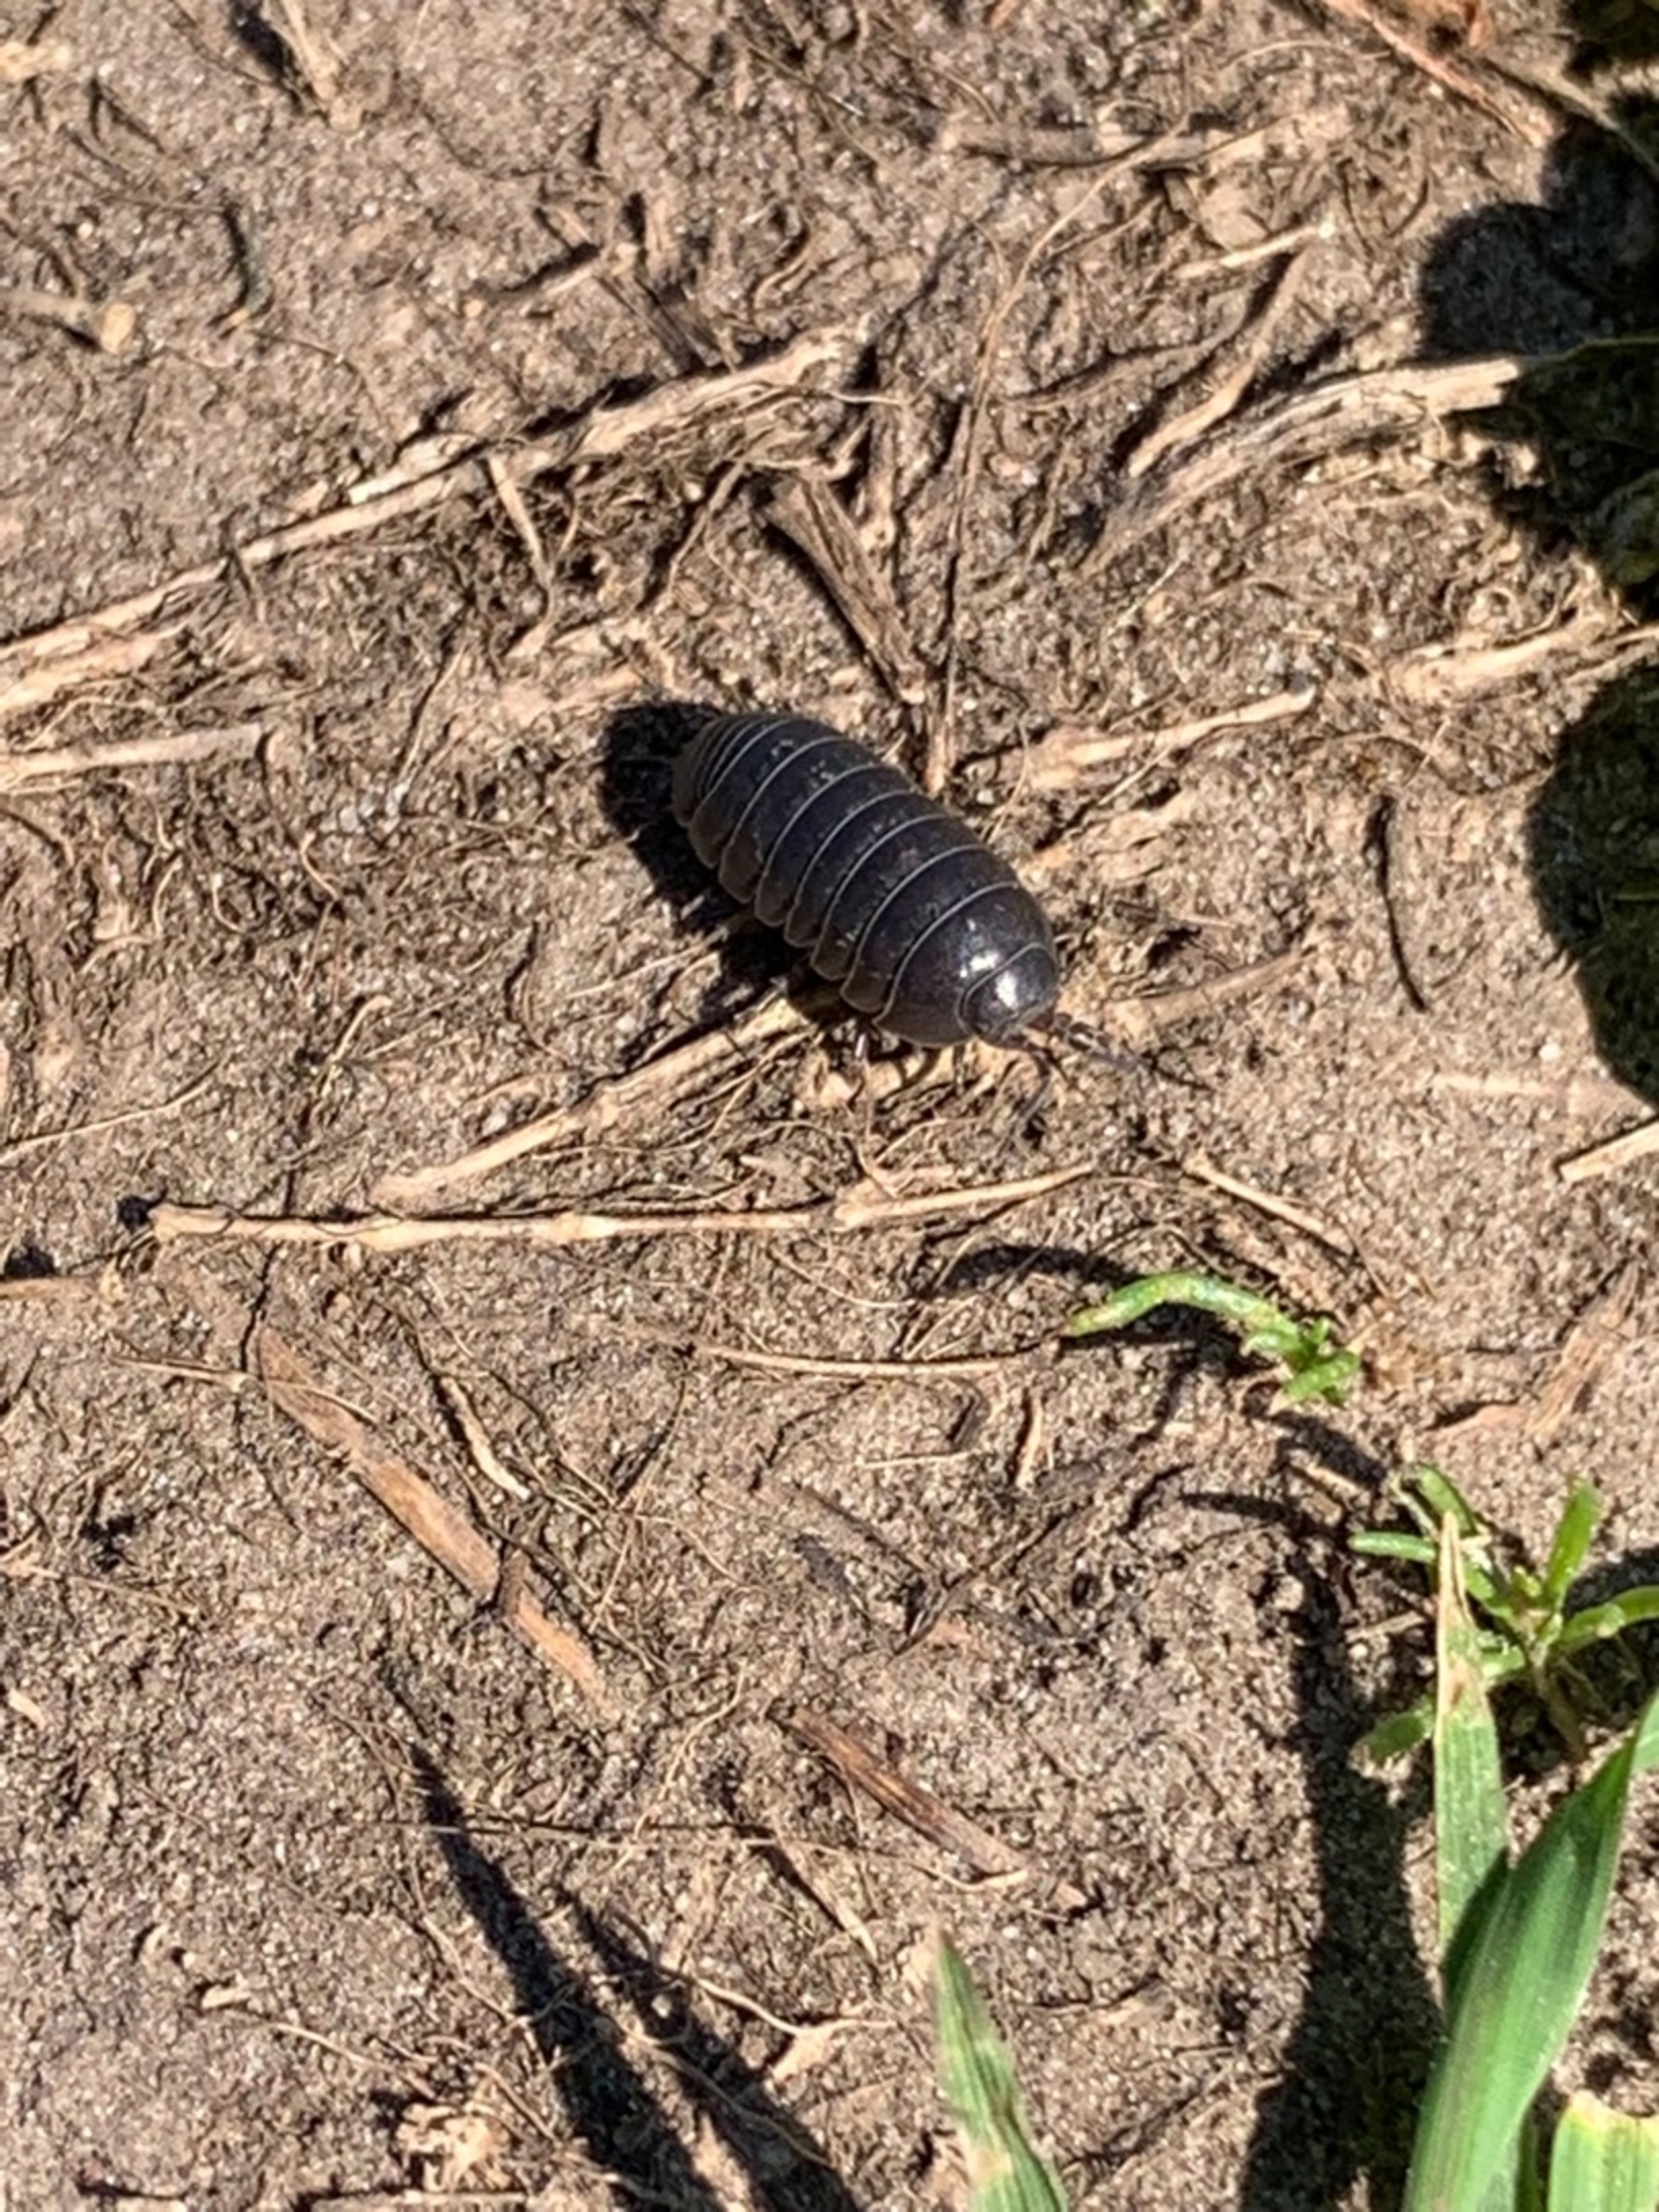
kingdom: Animalia
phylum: Arthropoda
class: Malacostraca
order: Isopoda
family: Armadillidiidae
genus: Armadillidium
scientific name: Armadillidium vulgare
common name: Almindelig kuglebænkebider
